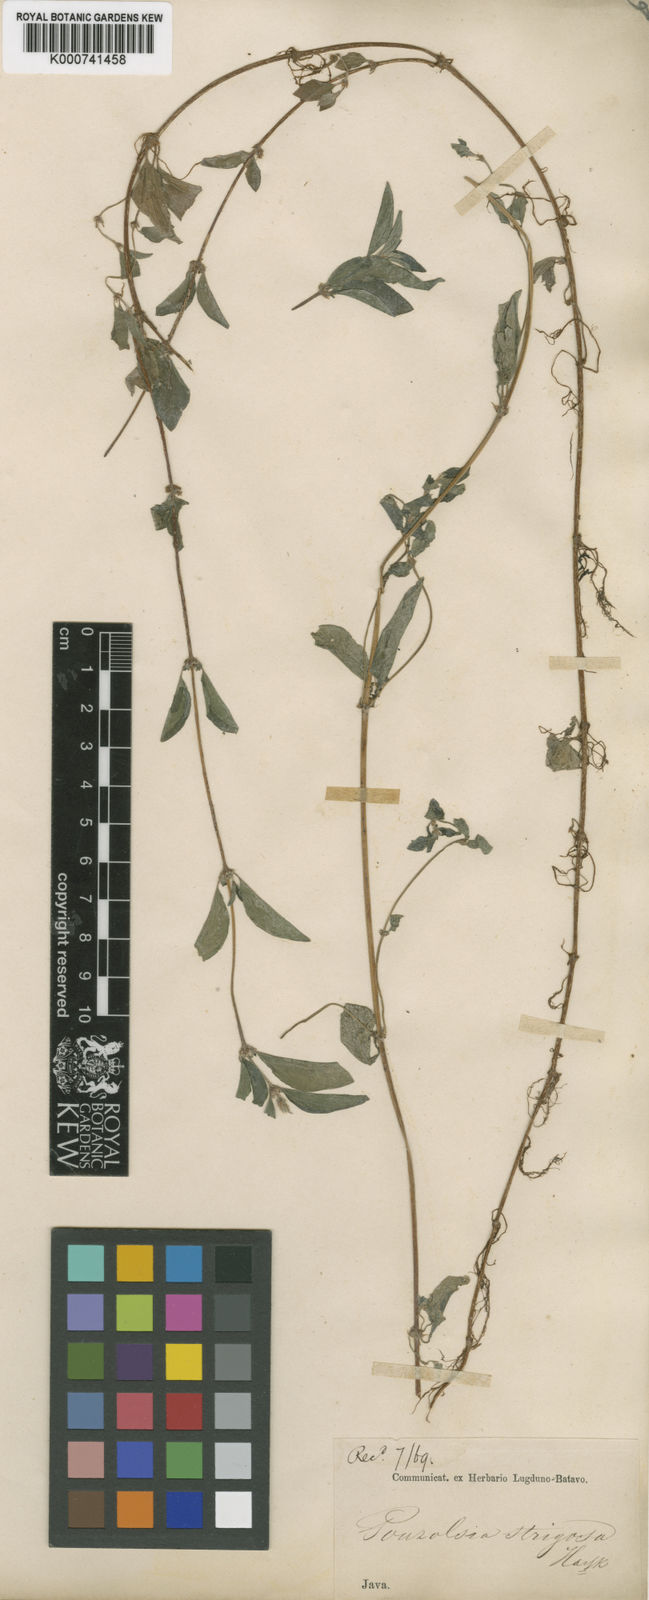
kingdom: Plantae
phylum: Tracheophyta
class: Magnoliopsida
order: Rosales
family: Urticaceae
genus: Pouzolzia
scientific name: Pouzolzia zeylanica
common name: Graceful pouzolzsbush
